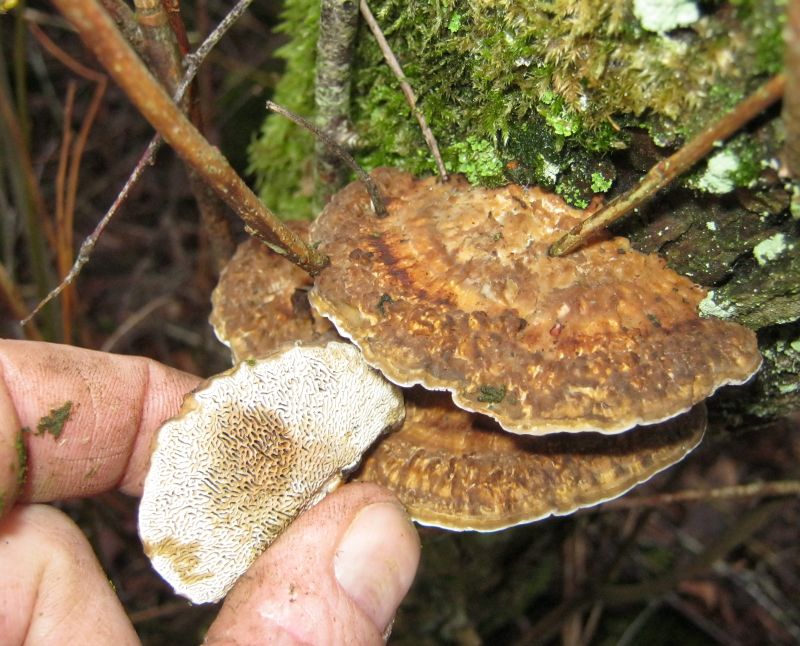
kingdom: Fungi
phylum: Basidiomycota
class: Agaricomycetes
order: Polyporales
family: Polyporaceae
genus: Daedaleopsis
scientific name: Daedaleopsis confragosa
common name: rødmende læderporesvamp
